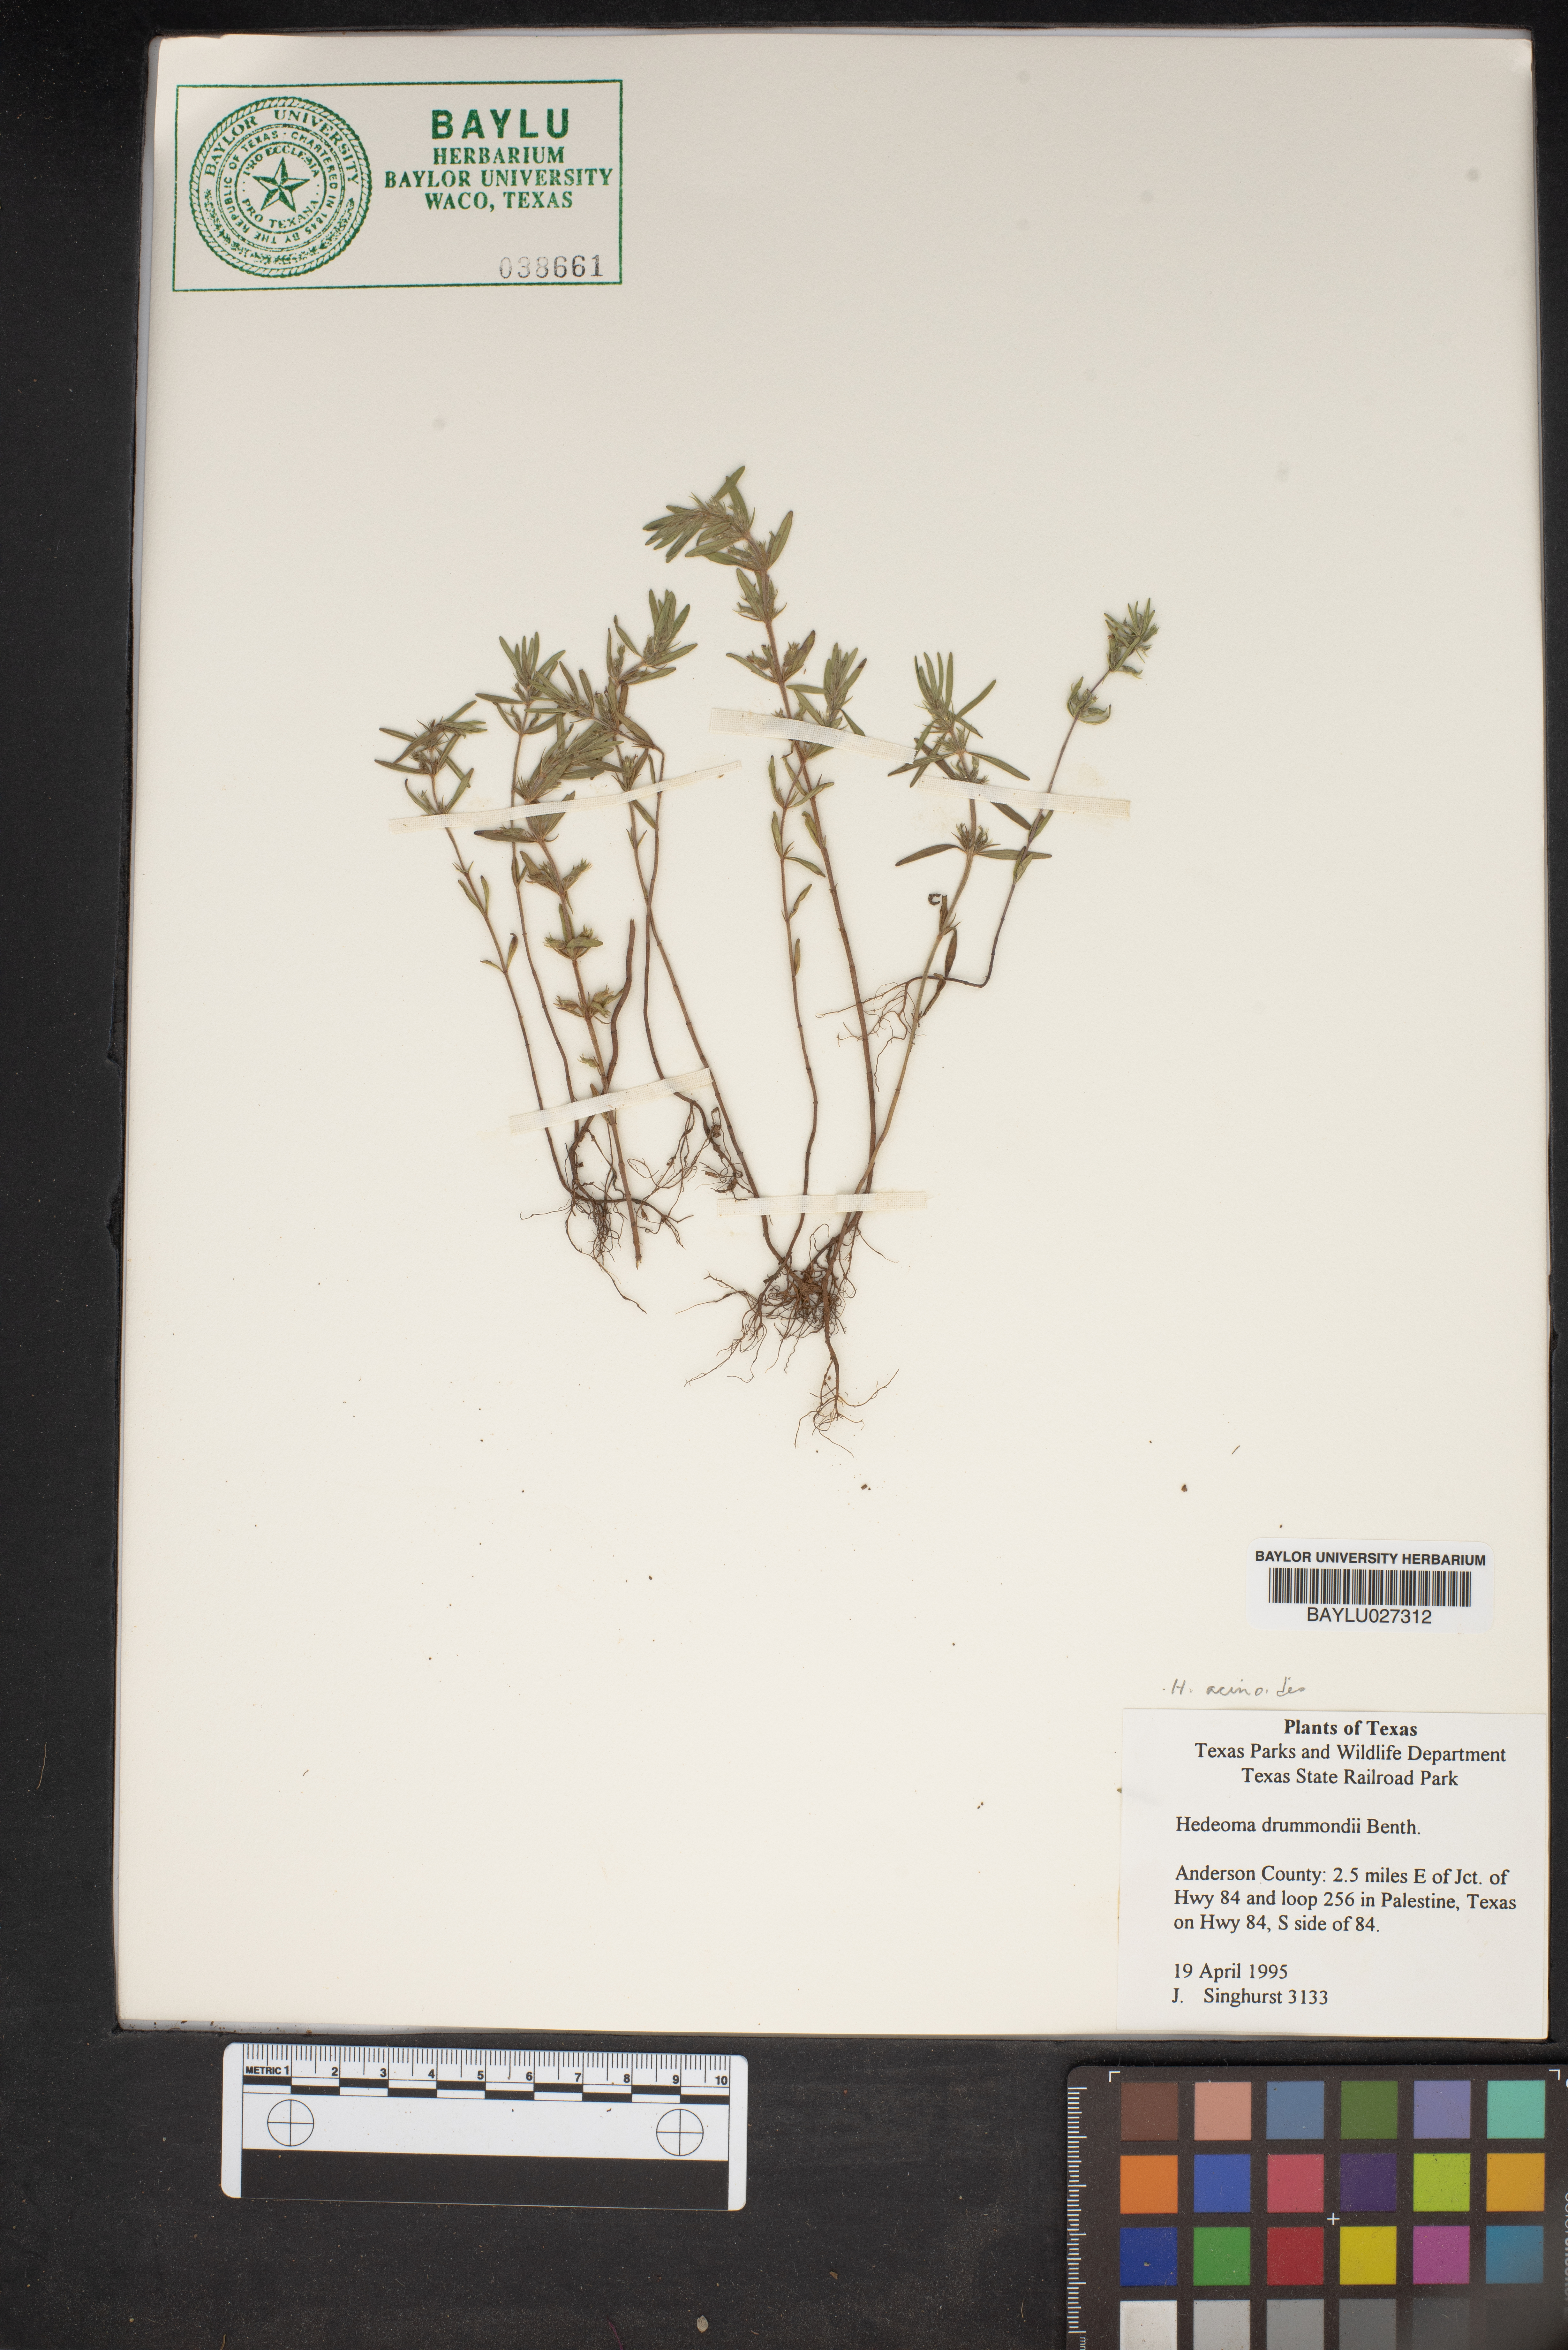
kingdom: Plantae
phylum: Tracheophyta
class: Magnoliopsida
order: Lamiales
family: Lamiaceae
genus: Hedeoma
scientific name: Hedeoma drummondii
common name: New mexico pennyroyal
